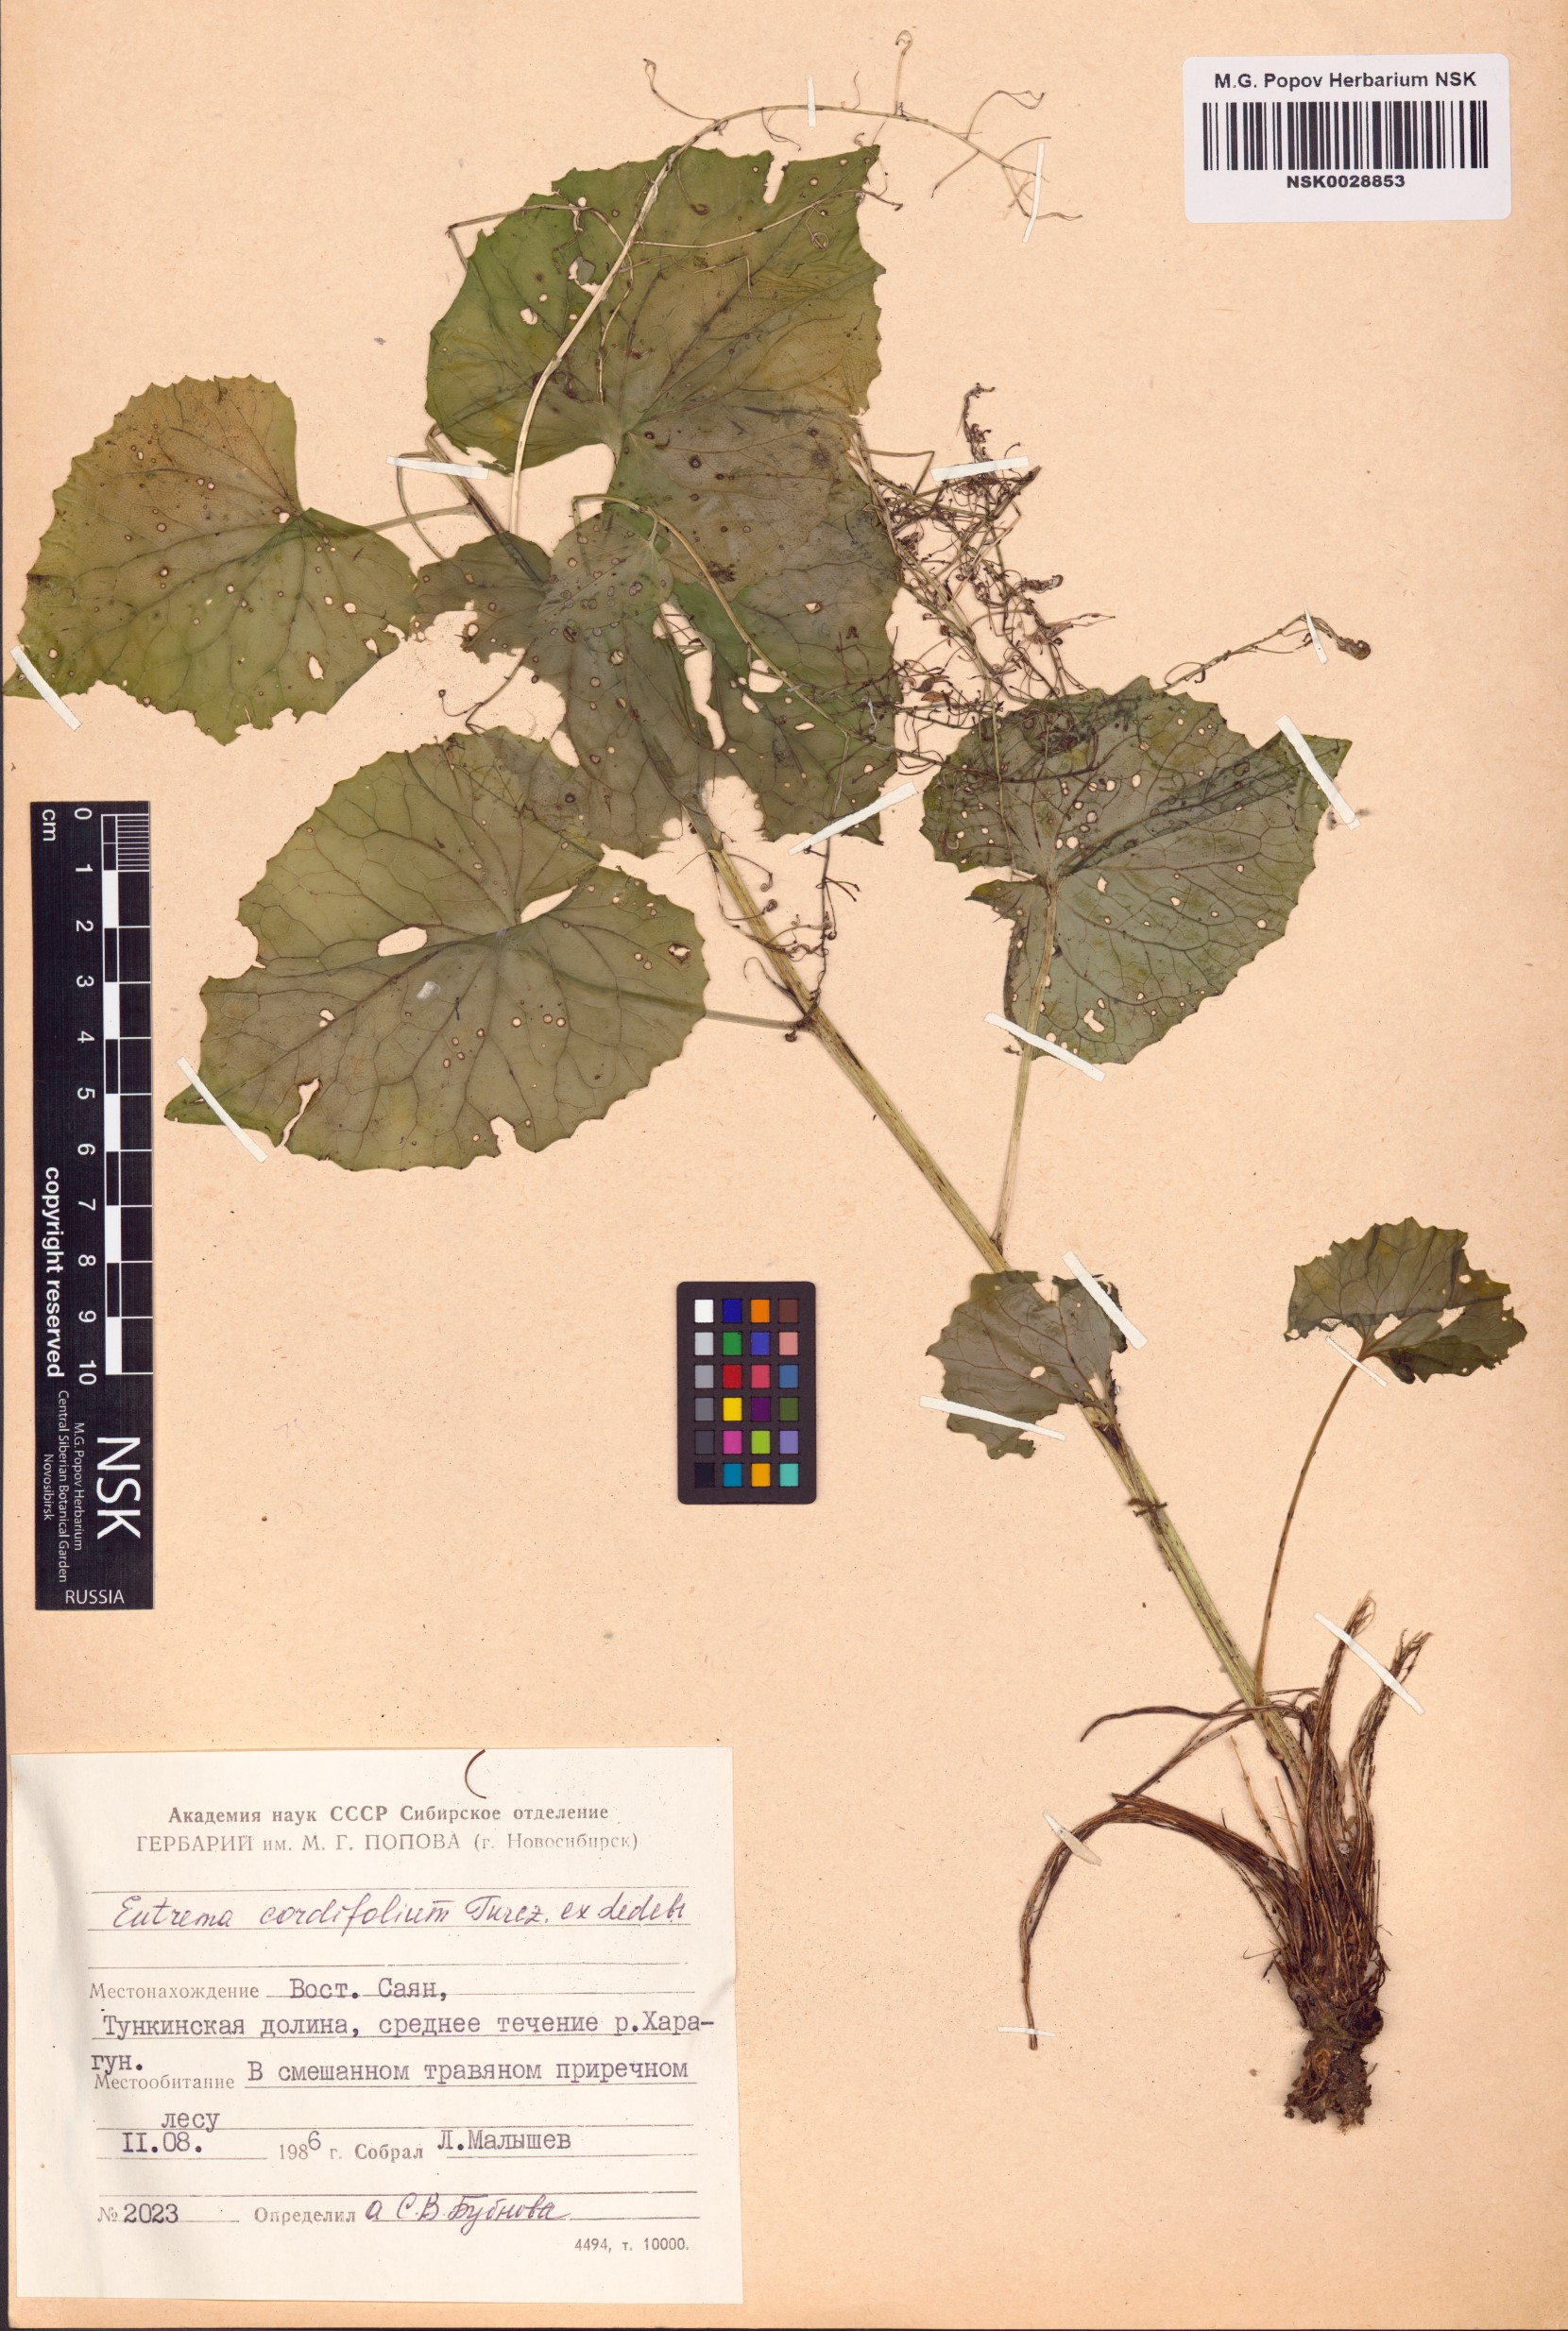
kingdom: Plantae
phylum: Tracheophyta
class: Magnoliopsida
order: Brassicales
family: Brassicaceae
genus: Eutrema
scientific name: Eutrema cordifolium
